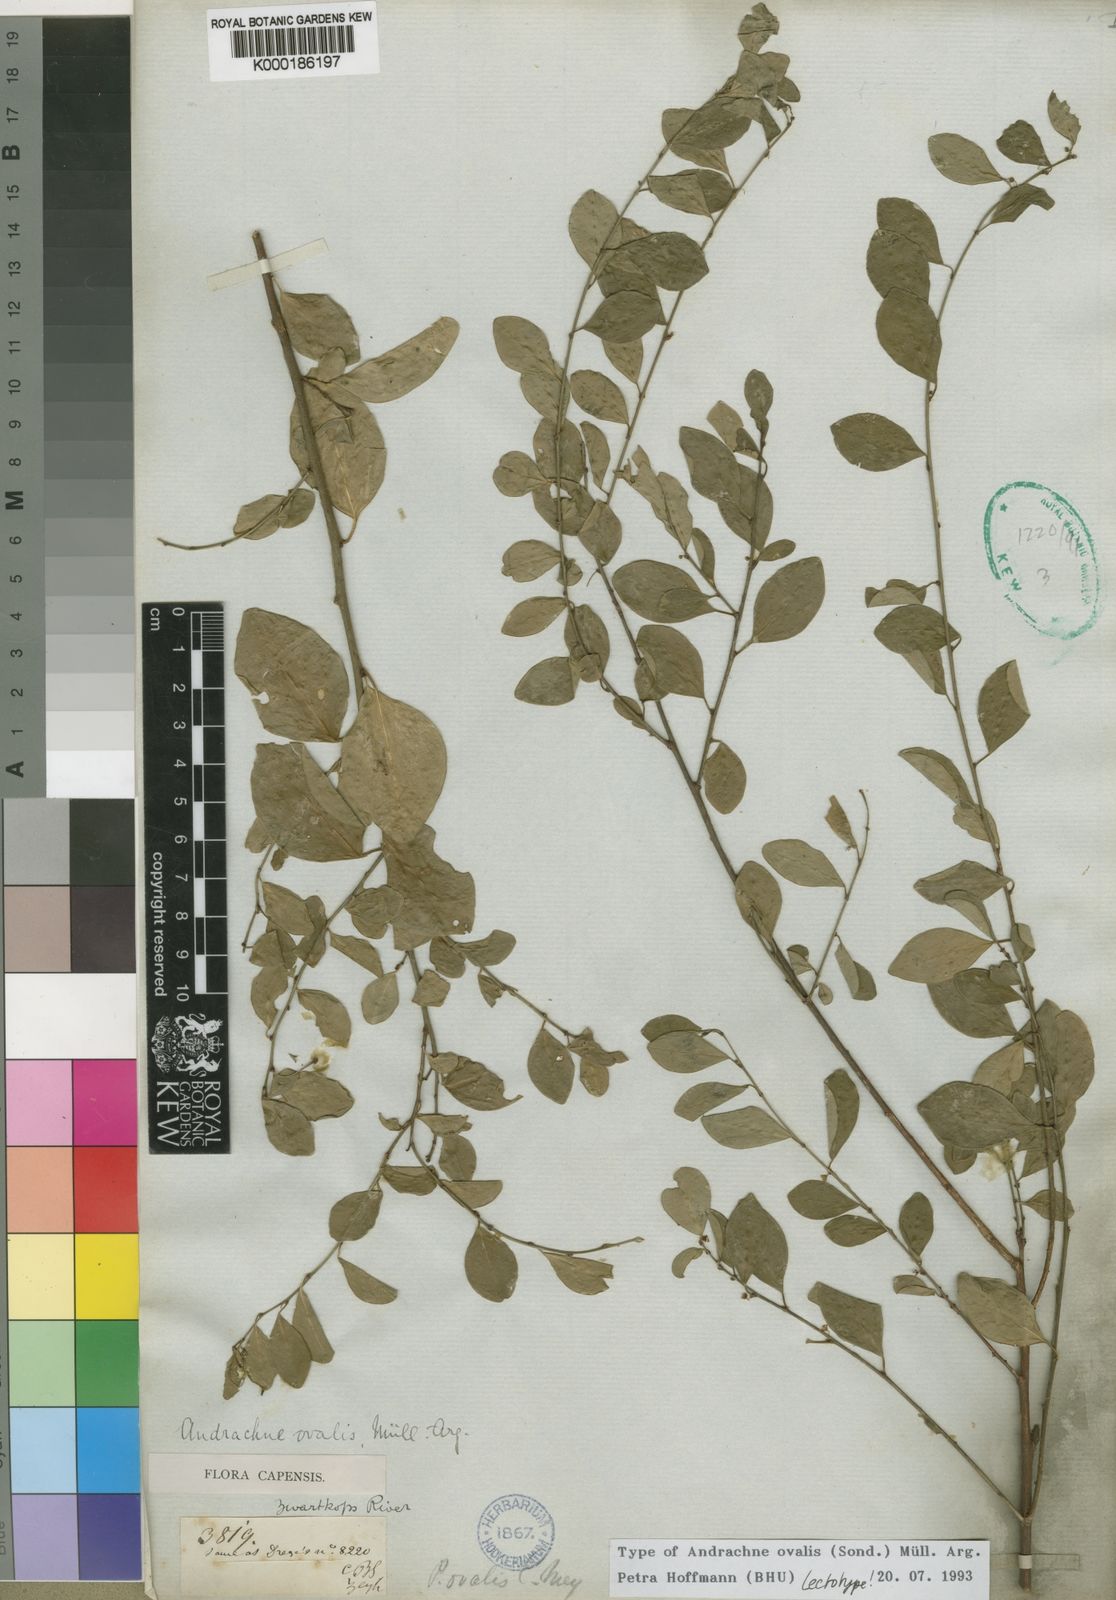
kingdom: Plantae
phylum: Tracheophyta
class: Magnoliopsida
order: Malpighiales
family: Phyllanthaceae
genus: Pseudophyllanthus
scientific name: Pseudophyllanthus ovalis
